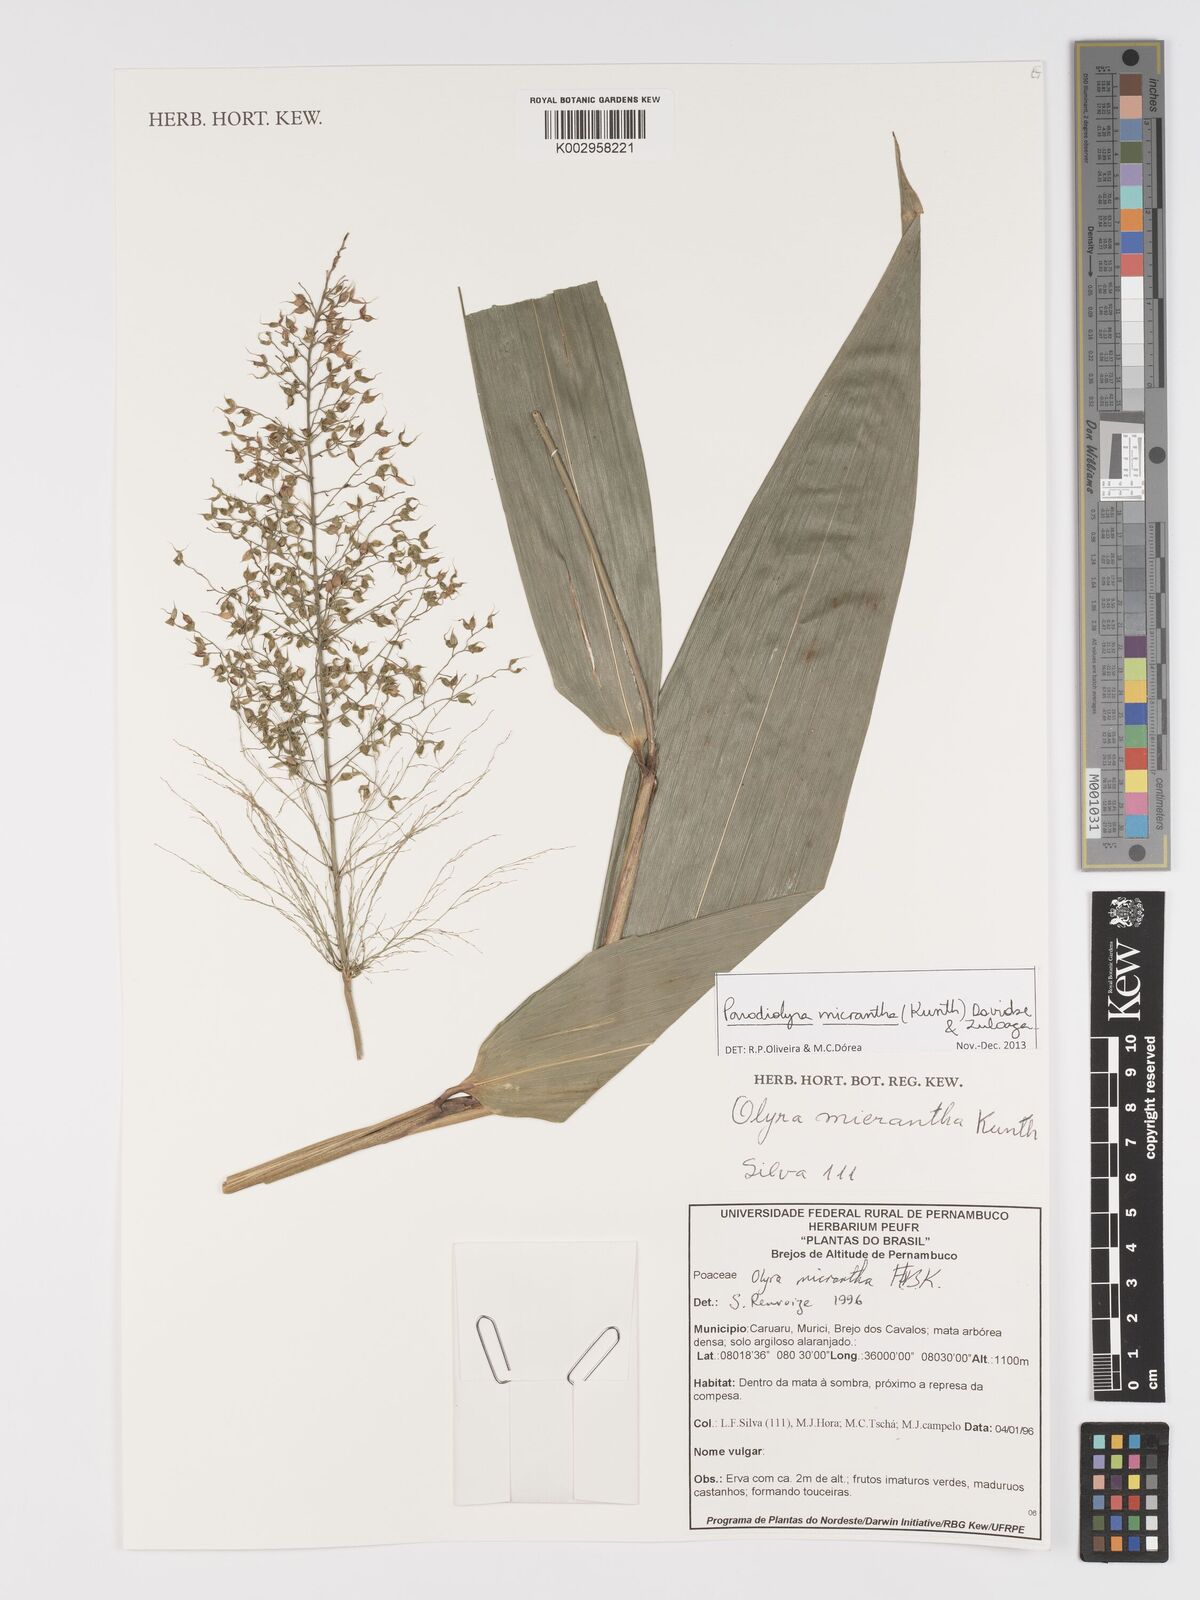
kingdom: Plantae
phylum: Tracheophyta
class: Liliopsida
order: Poales
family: Poaceae
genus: Taquara
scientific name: Taquara micrantha
